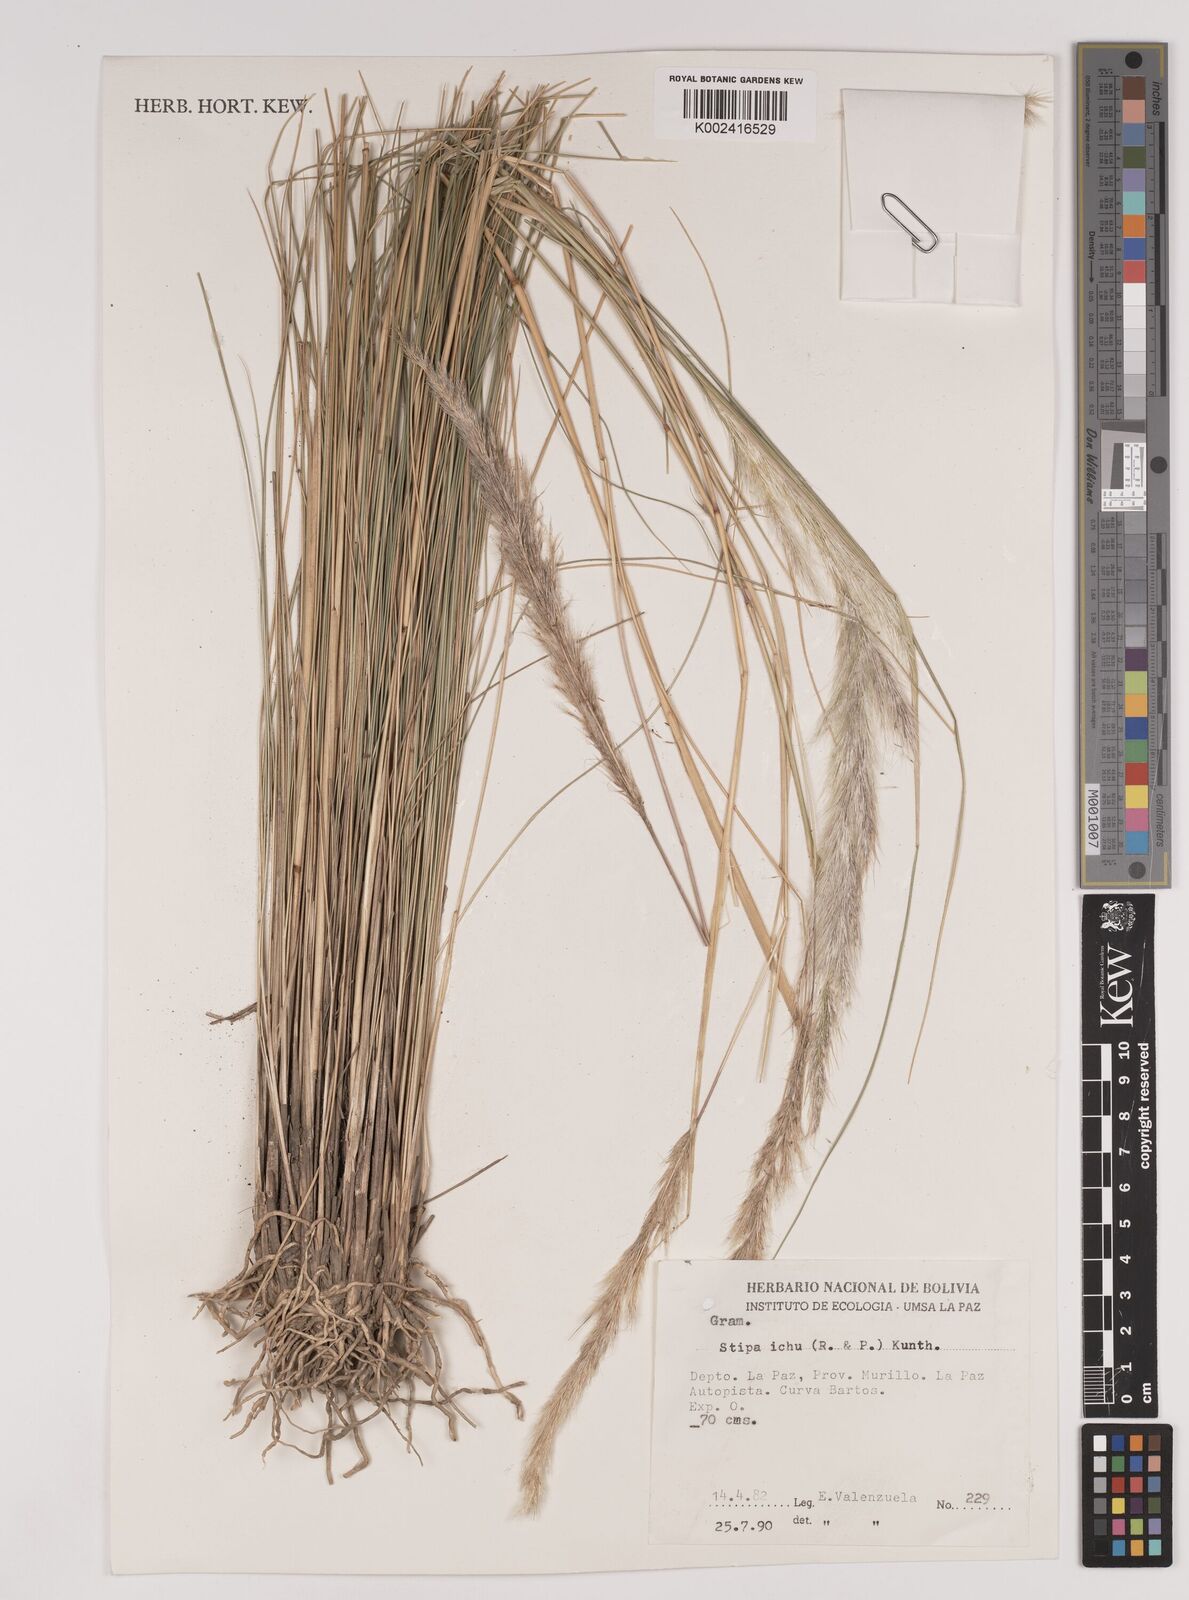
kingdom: Plantae
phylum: Tracheophyta
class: Liliopsida
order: Poales
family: Poaceae
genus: Jarava
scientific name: Jarava ichu
